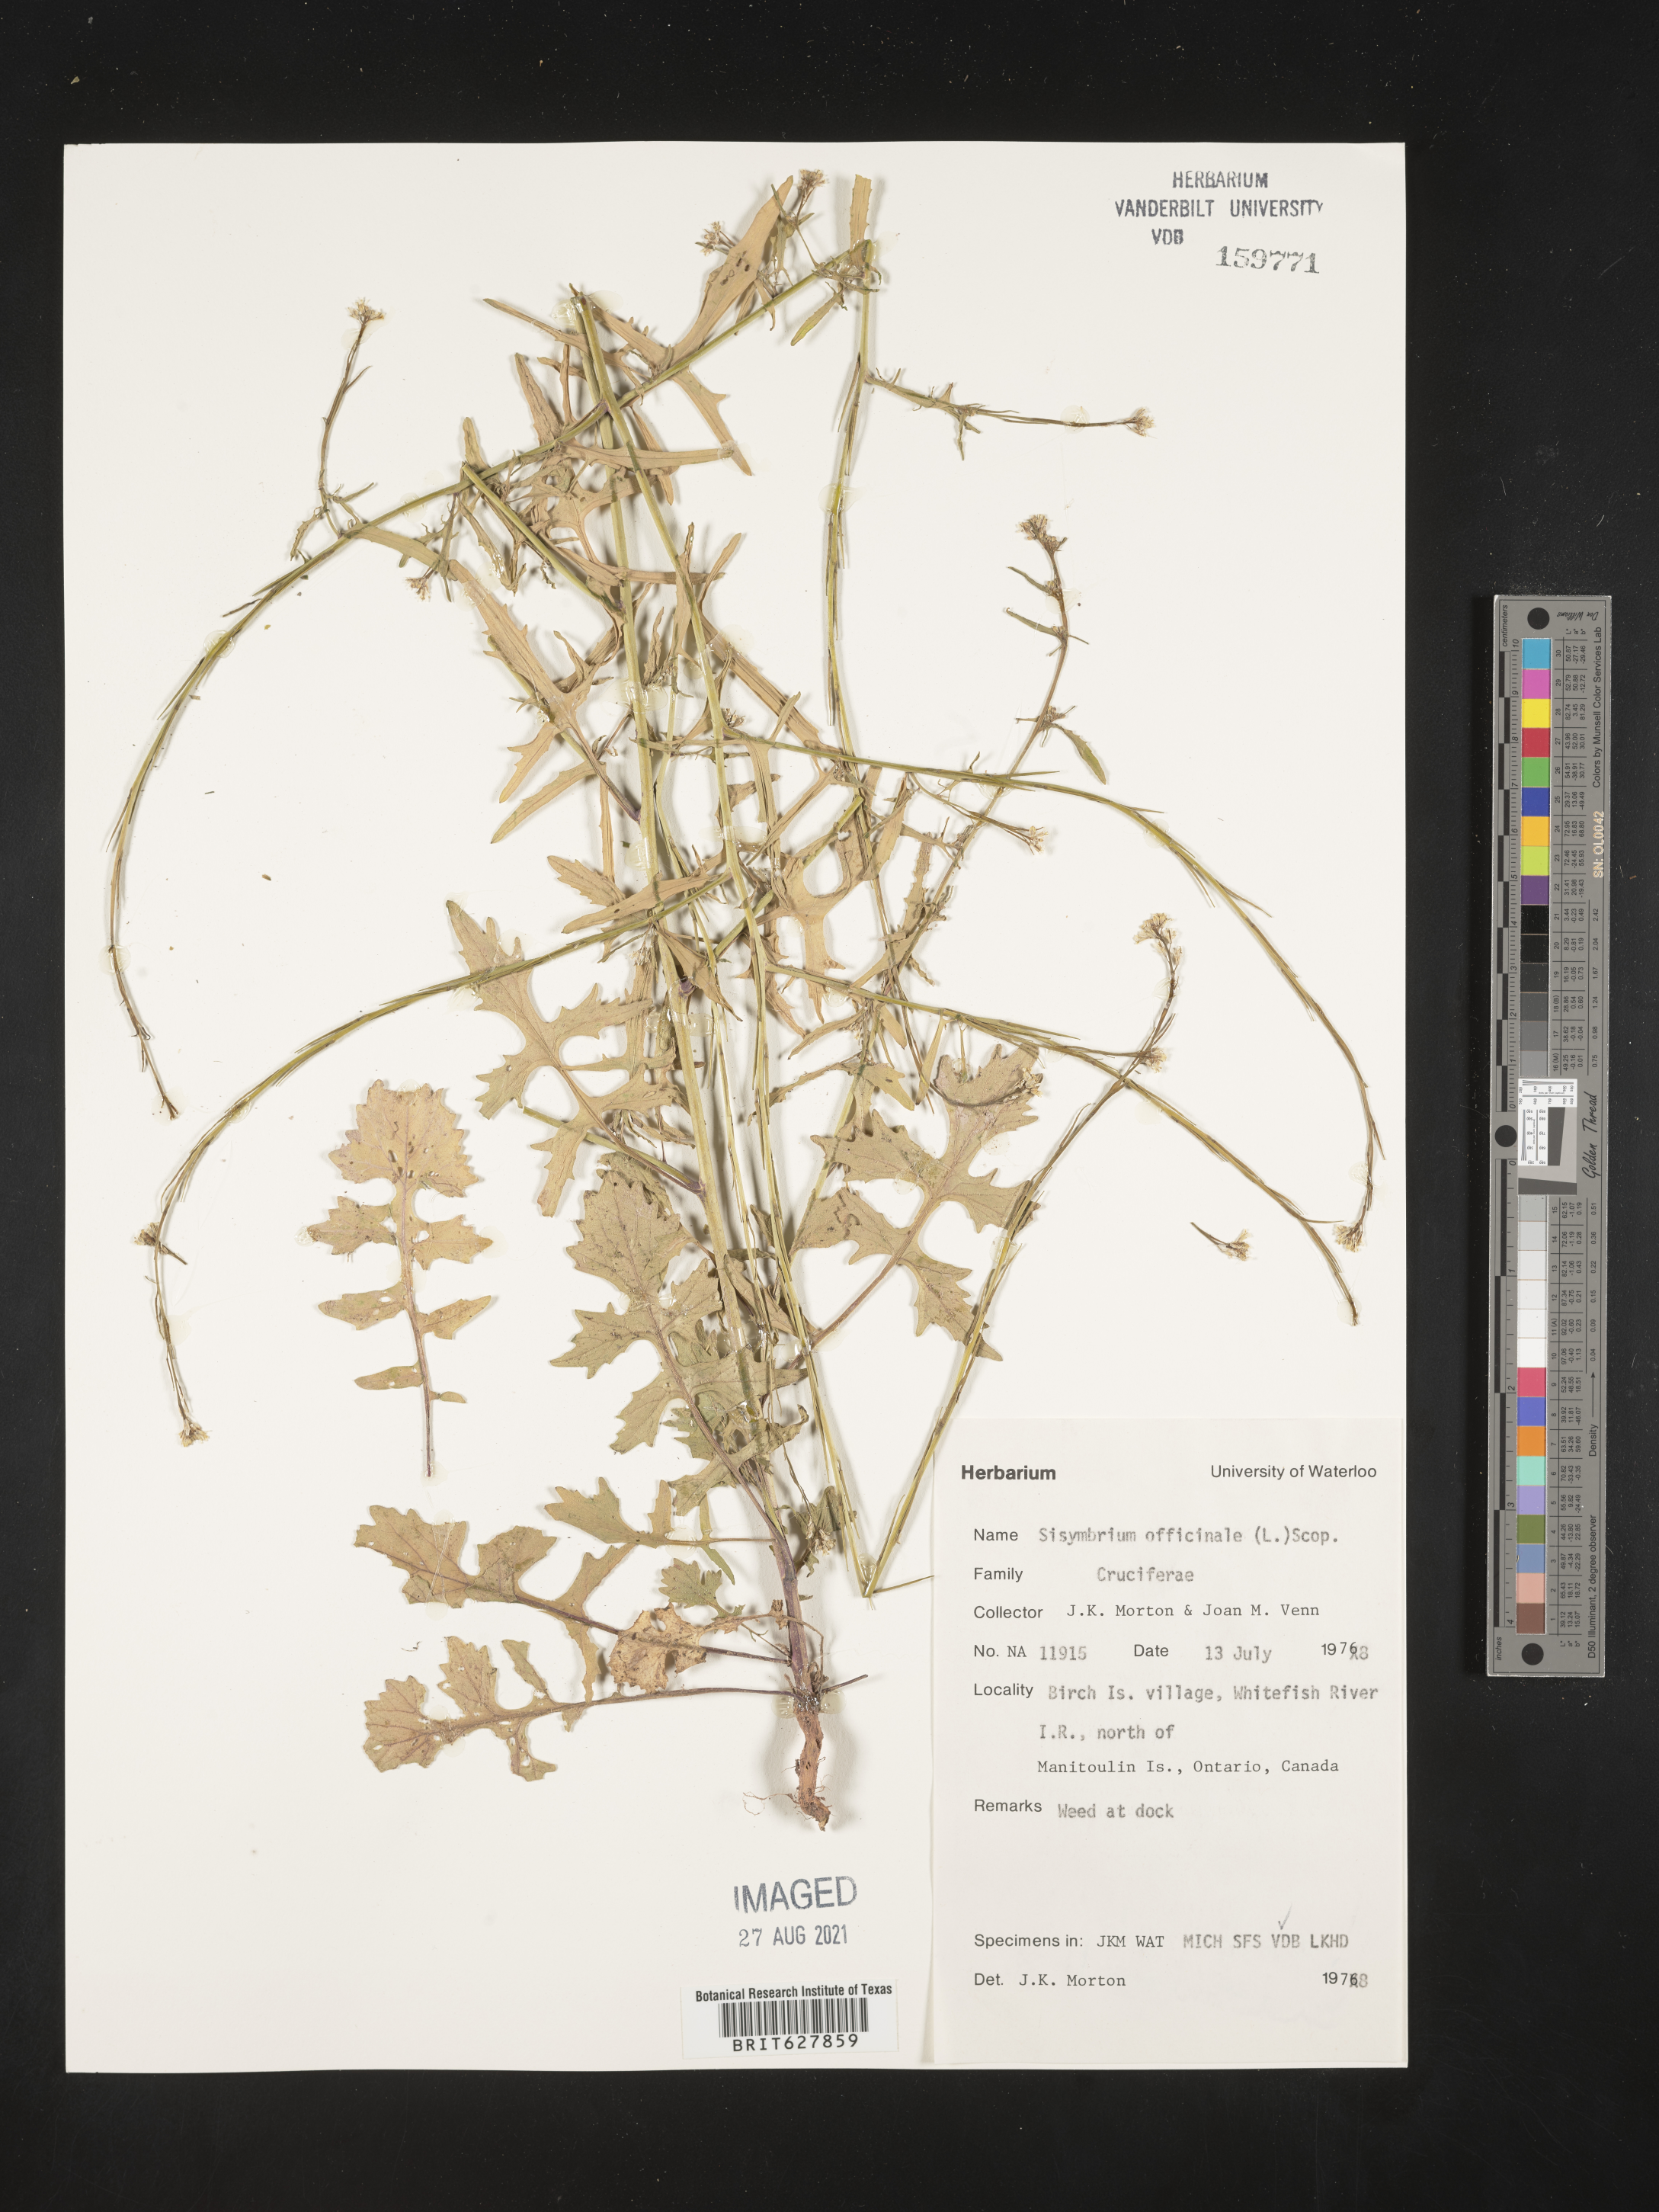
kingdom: Plantae
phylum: Tracheophyta
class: Magnoliopsida
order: Brassicales
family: Brassicaceae
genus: Sisymbrium
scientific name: Sisymbrium officinale
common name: Hedge mustard
